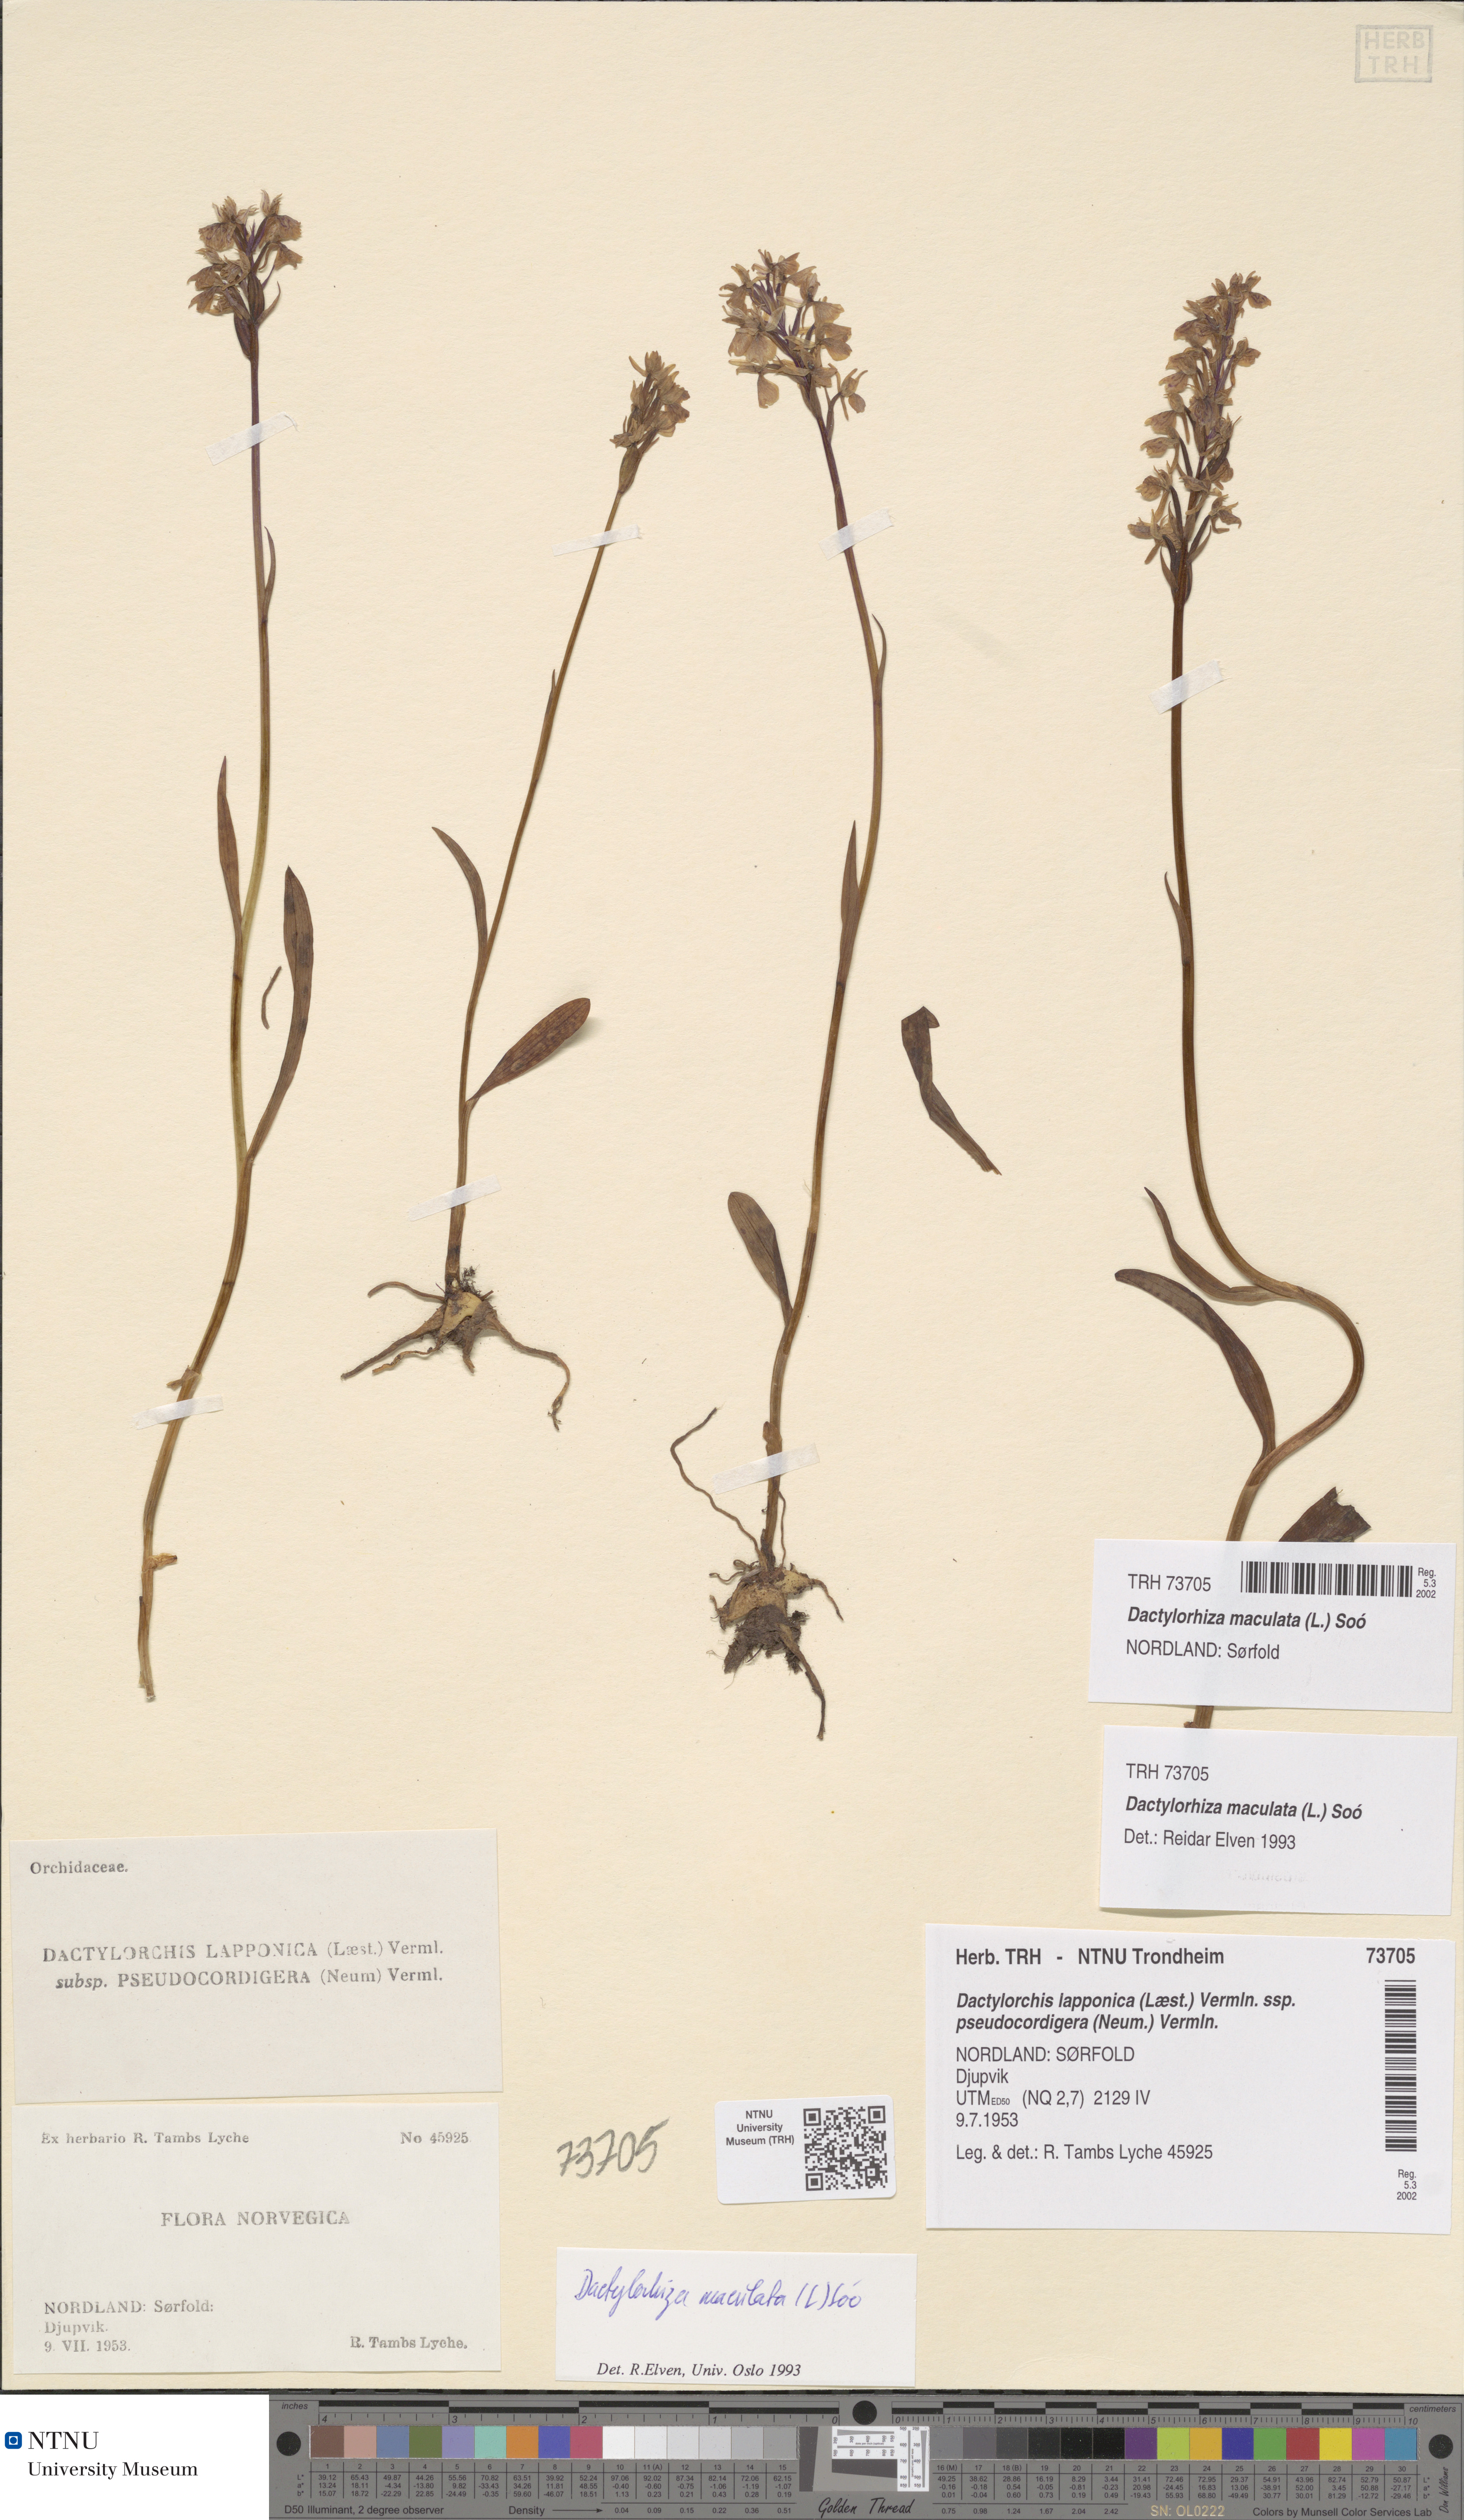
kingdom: Plantae
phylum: Tracheophyta
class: Liliopsida
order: Asparagales
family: Orchidaceae
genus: Dactylorhiza
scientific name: Dactylorhiza maculata
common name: Heath spotted-orchid
